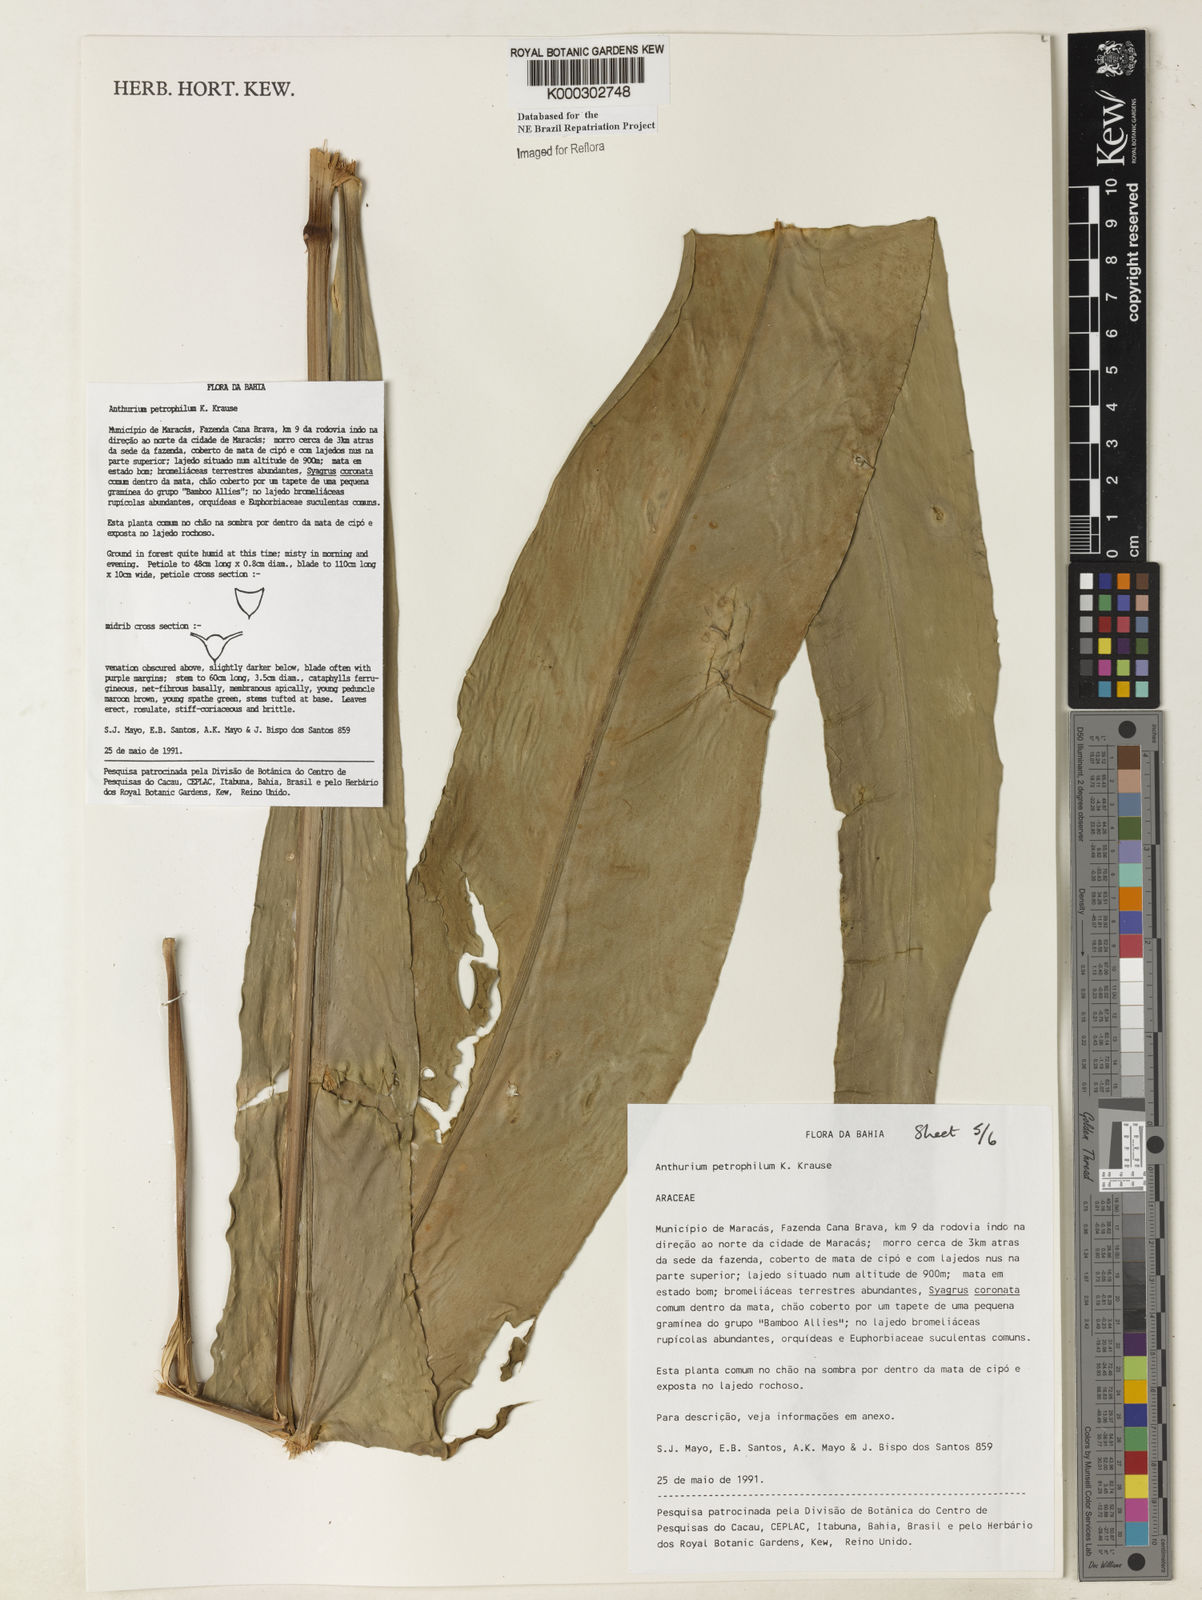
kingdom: Plantae
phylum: Tracheophyta
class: Liliopsida
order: Alismatales
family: Araceae
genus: Anthurium
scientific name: Anthurium petrophilum
